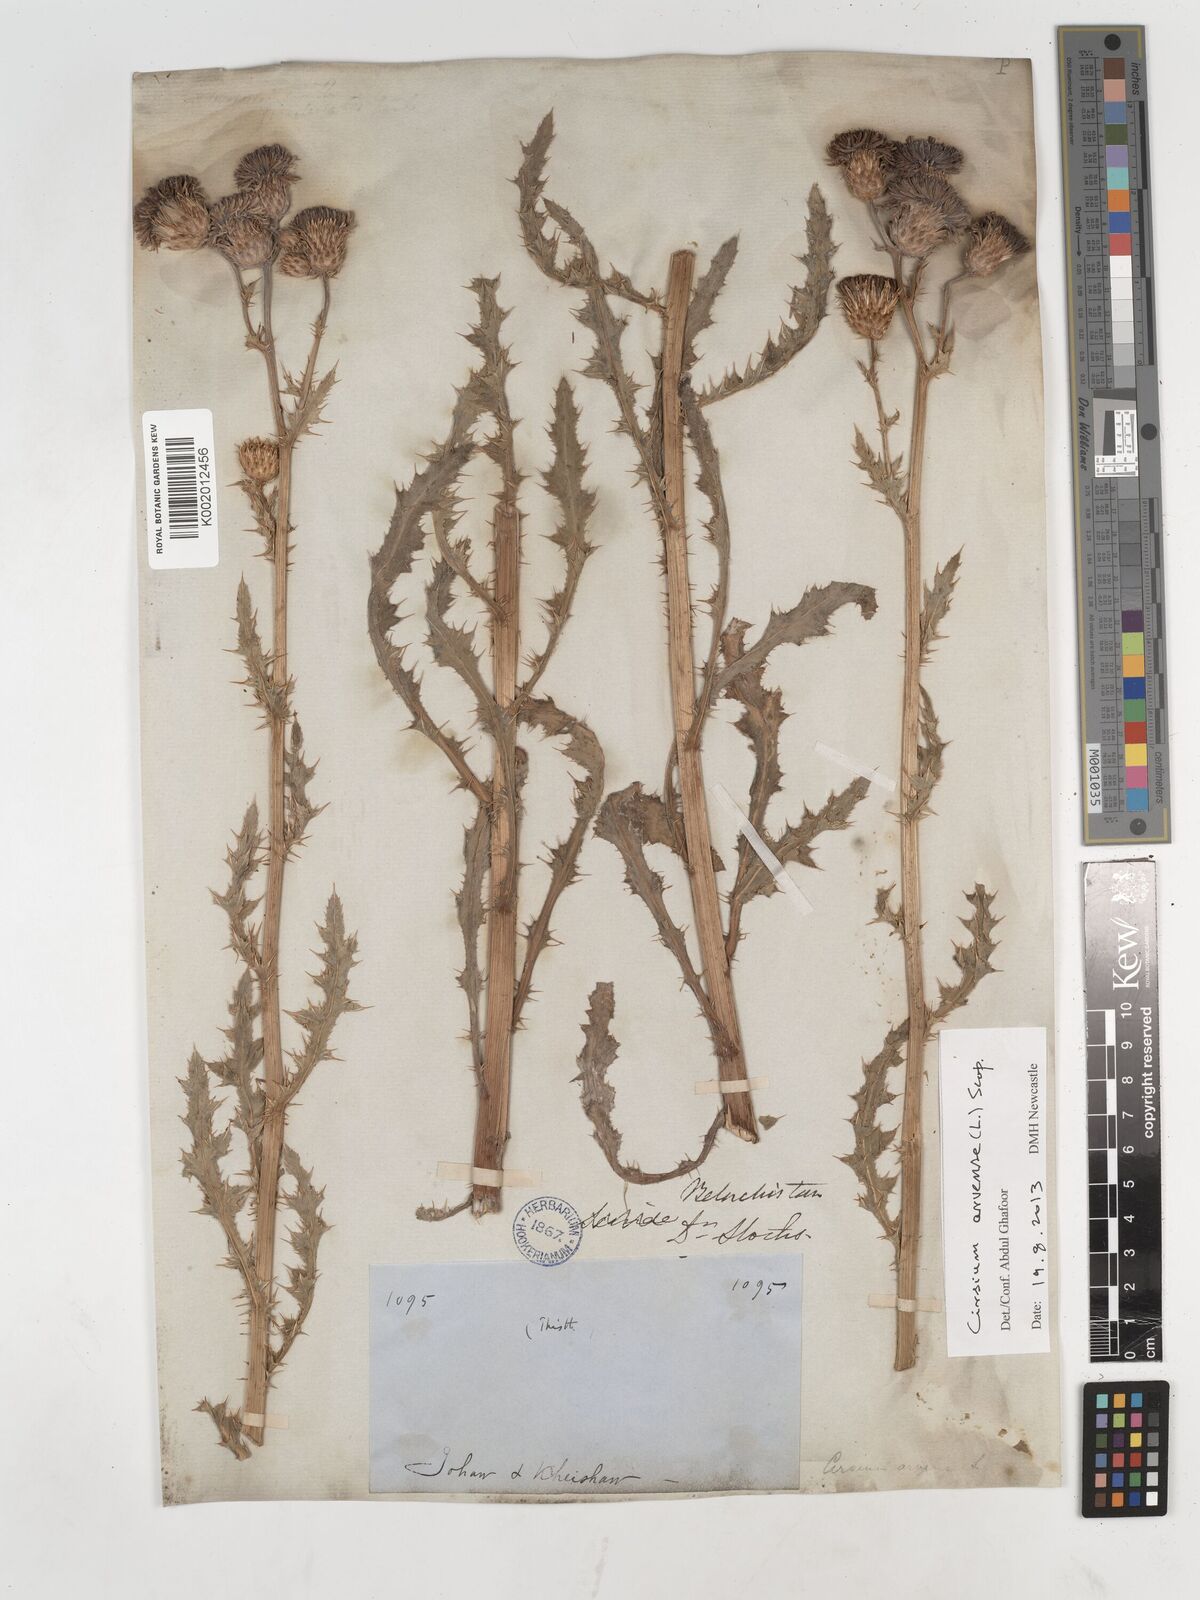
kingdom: Plantae
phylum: Tracheophyta
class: Magnoliopsida
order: Asterales
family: Asteraceae
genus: Cirsium
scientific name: Cirsium arvense
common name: Creeping thistle
